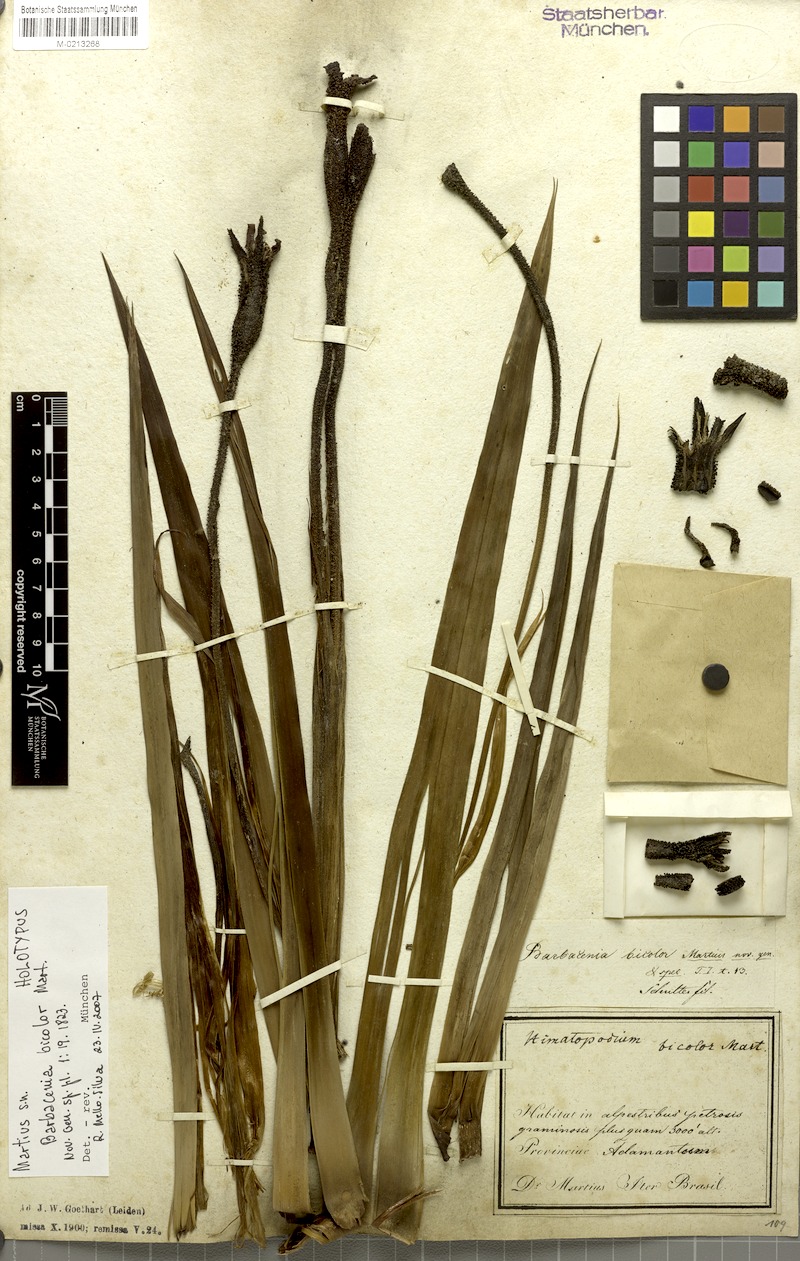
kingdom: Plantae
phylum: Tracheophyta
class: Liliopsida
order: Pandanales
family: Velloziaceae
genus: Barbacenia
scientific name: Barbacenia brasiliensis
